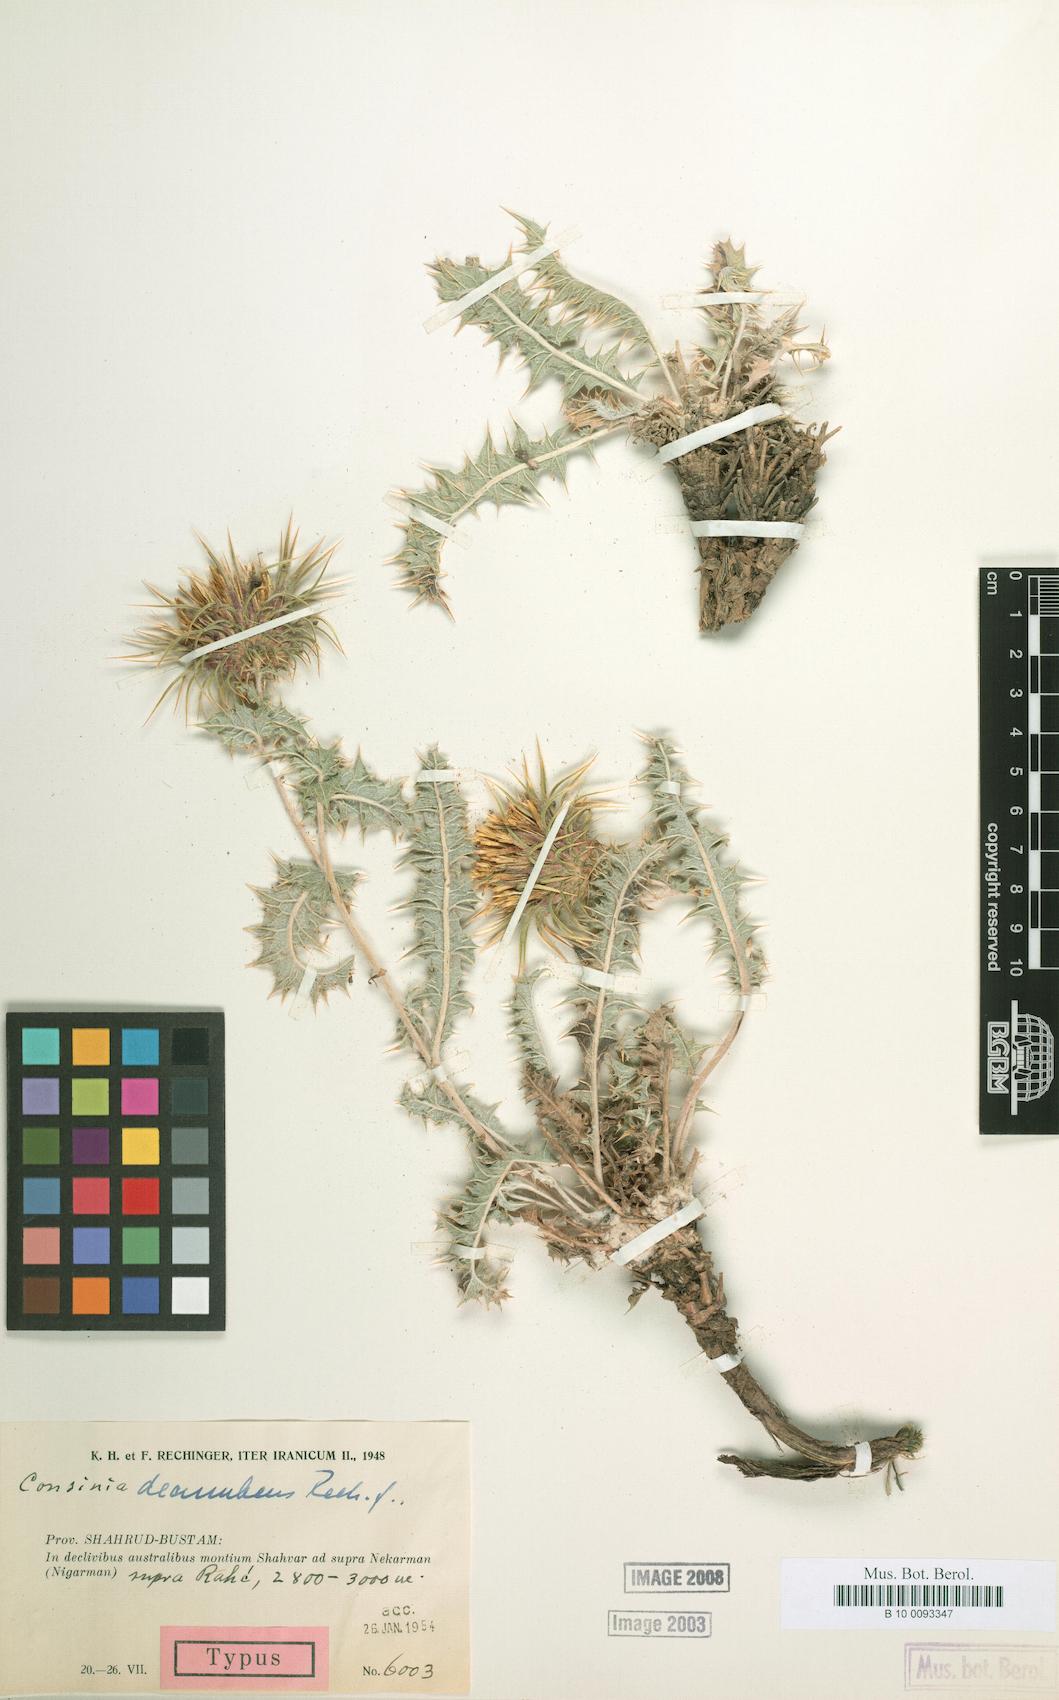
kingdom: Plantae
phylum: Tracheophyta
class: Magnoliopsida
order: Asterales
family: Asteraceae
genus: Cousinia
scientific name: Cousinia decumbens
